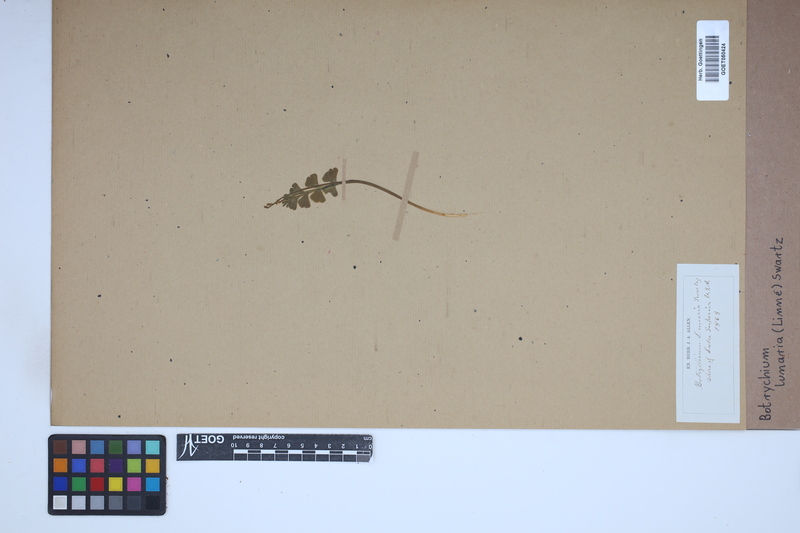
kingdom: Plantae
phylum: Tracheophyta
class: Polypodiopsida
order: Ophioglossales
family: Ophioglossaceae
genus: Botrychium
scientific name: Botrychium lunaria
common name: Moonwort
